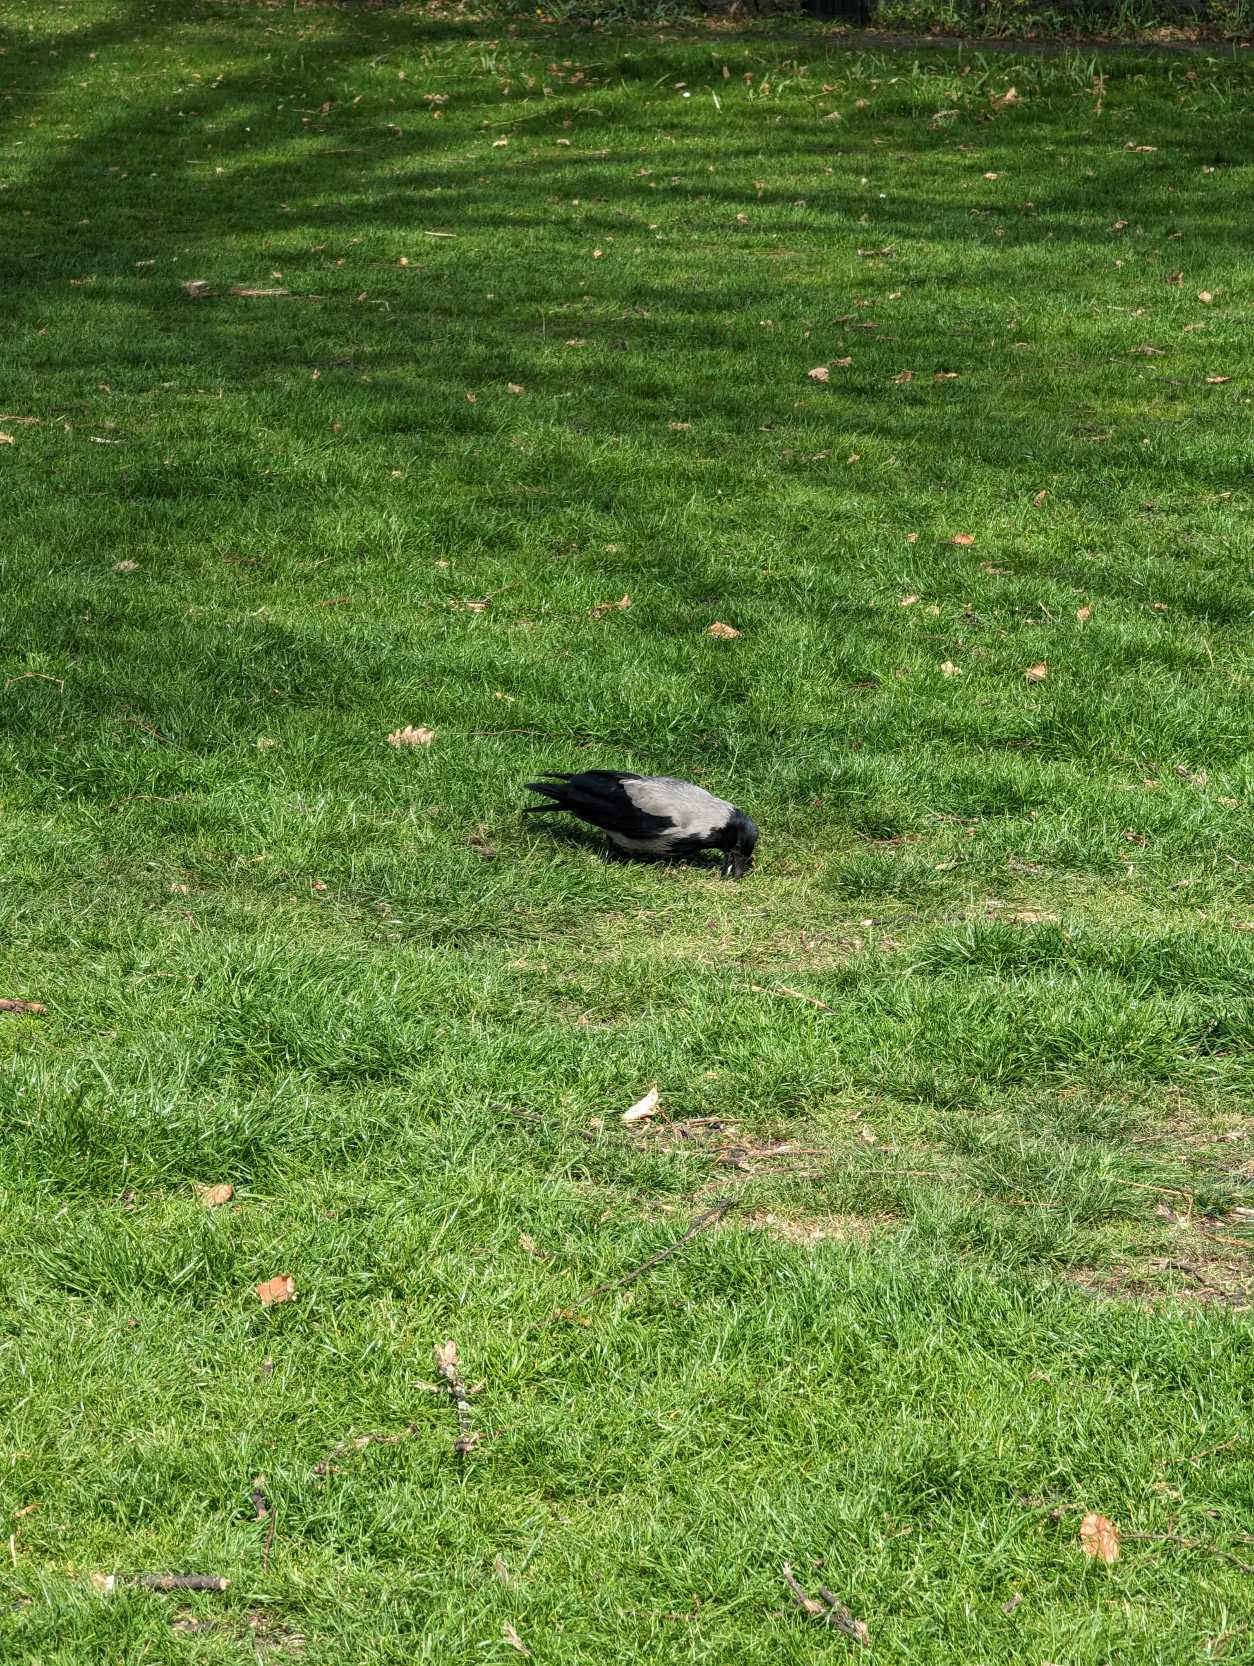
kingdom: Animalia
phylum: Chordata
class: Aves
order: Passeriformes
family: Corvidae
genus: Corvus
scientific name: Corvus cornix
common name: Gråkrage
